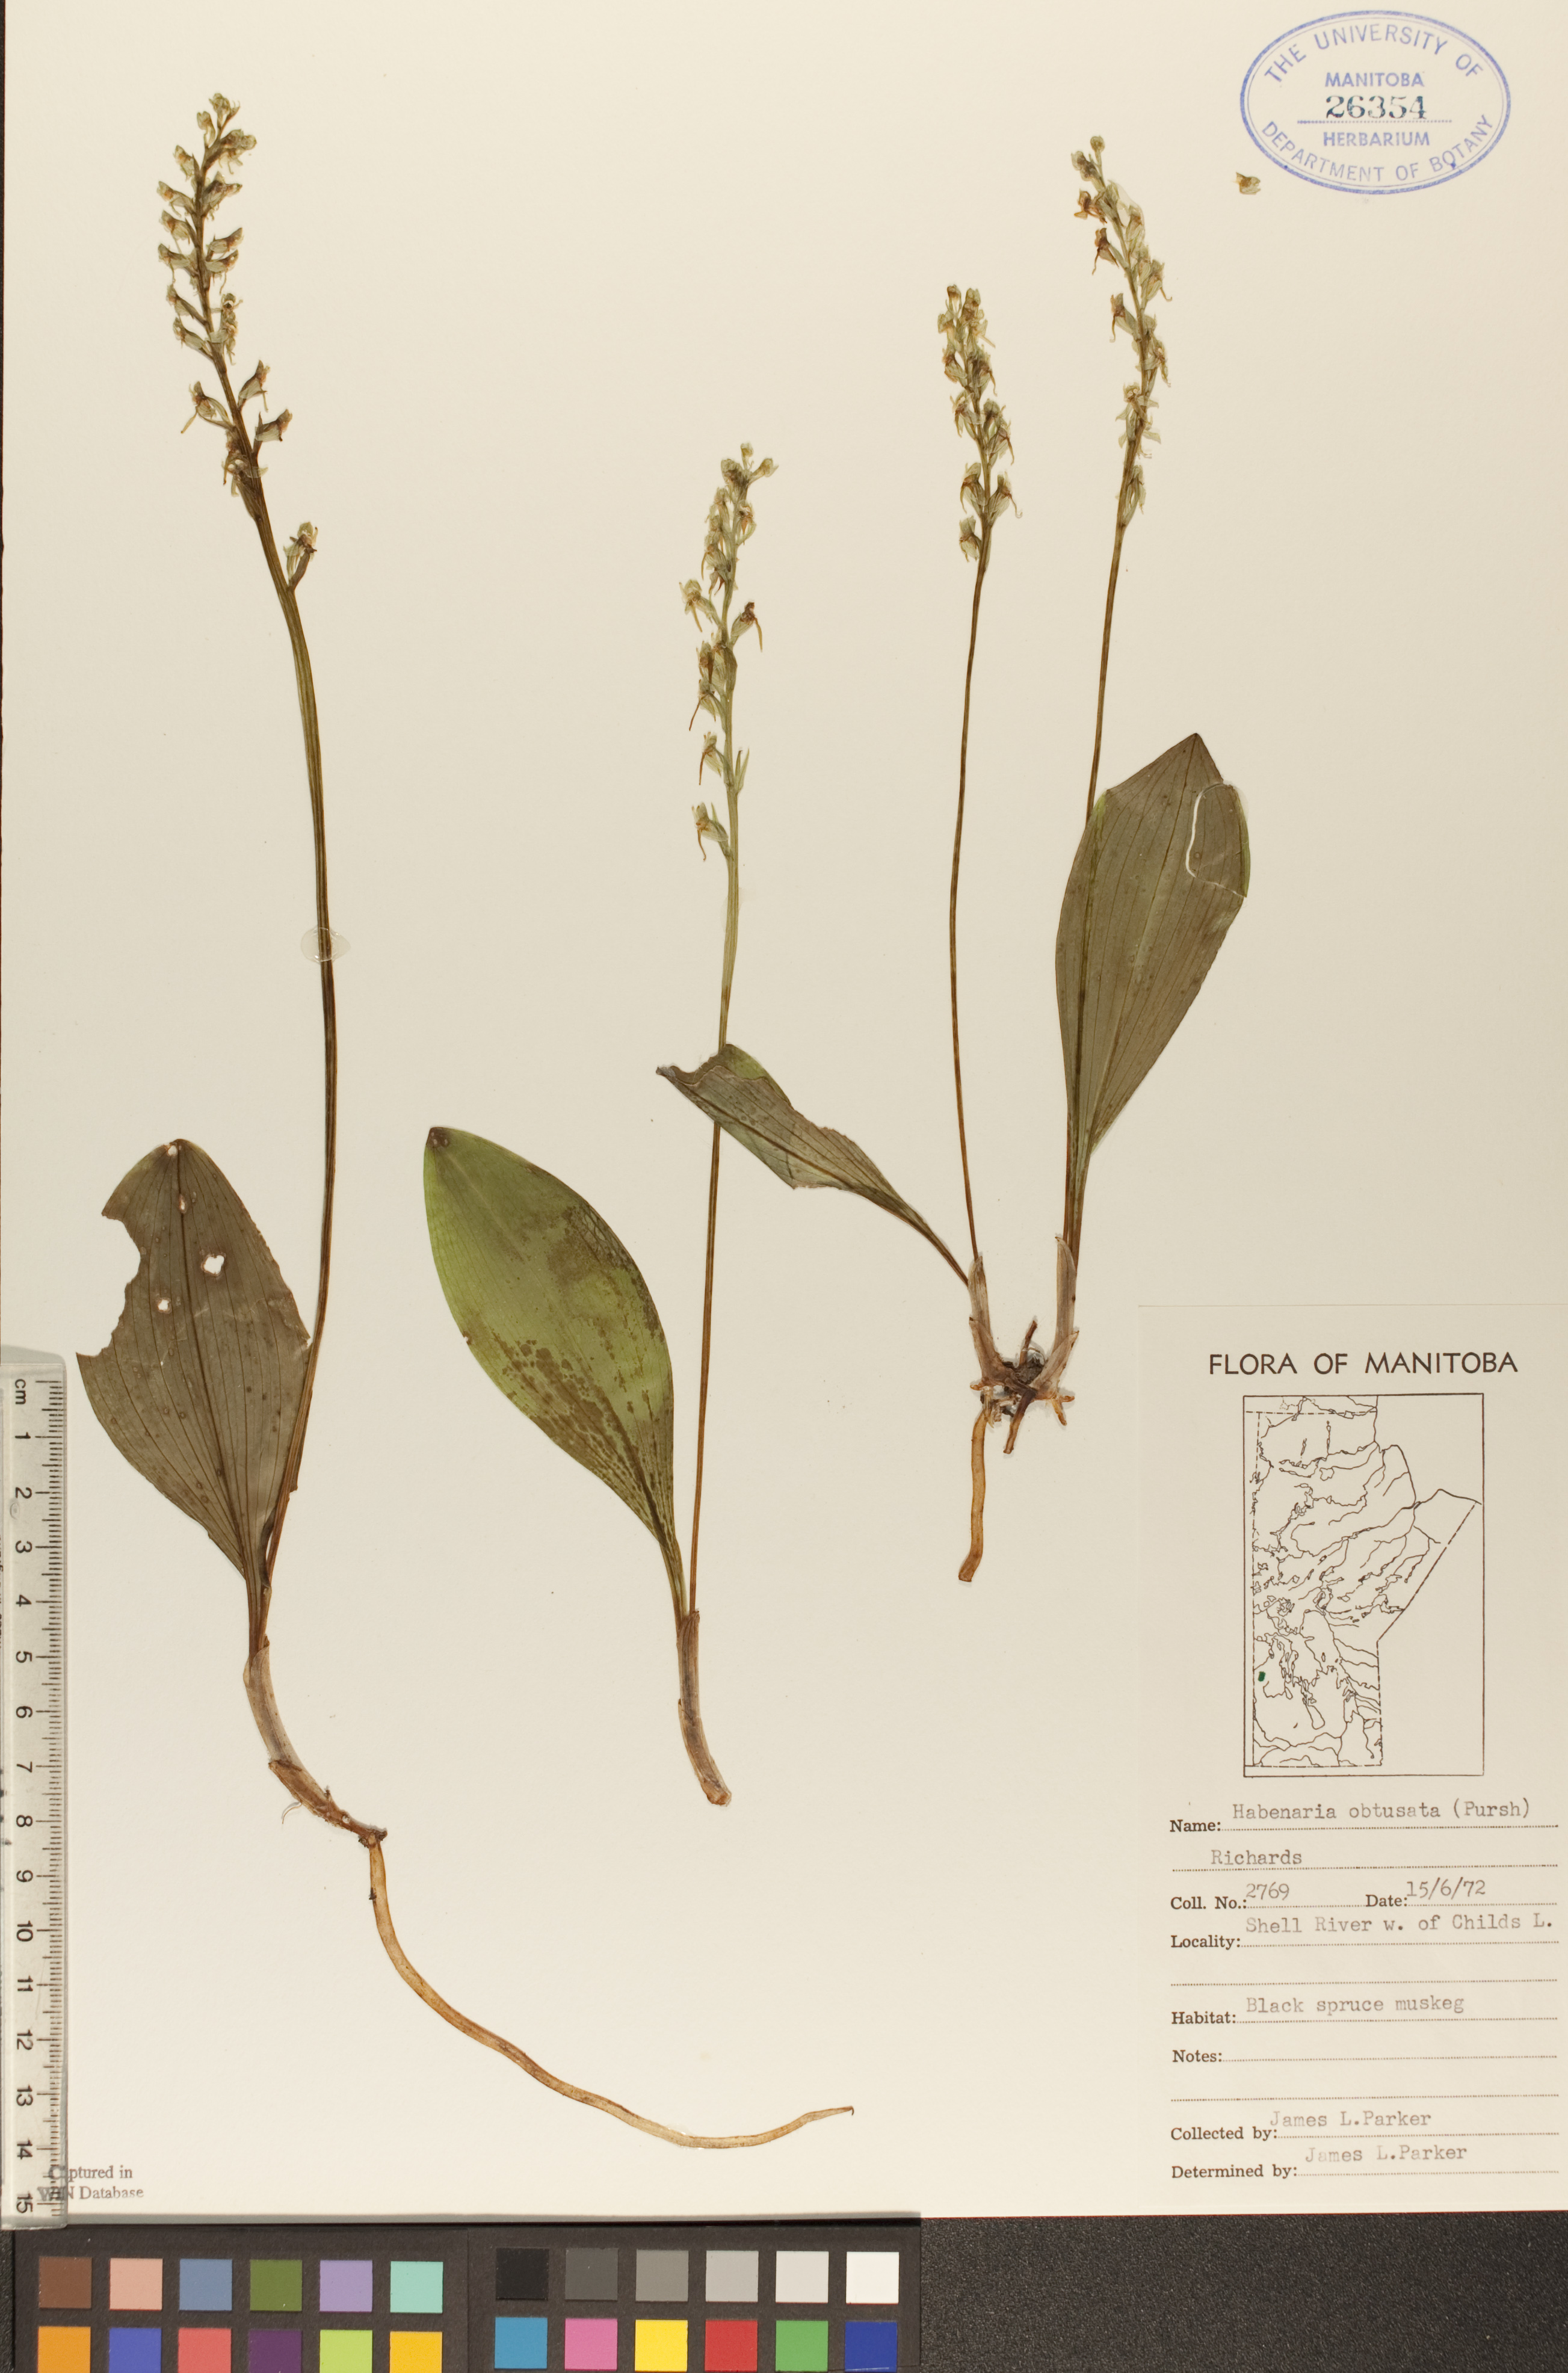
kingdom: Plantae
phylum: Tracheophyta
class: Liliopsida
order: Asparagales
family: Orchidaceae
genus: Platanthera
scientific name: Platanthera obtusata
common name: Blunt bog orchid
